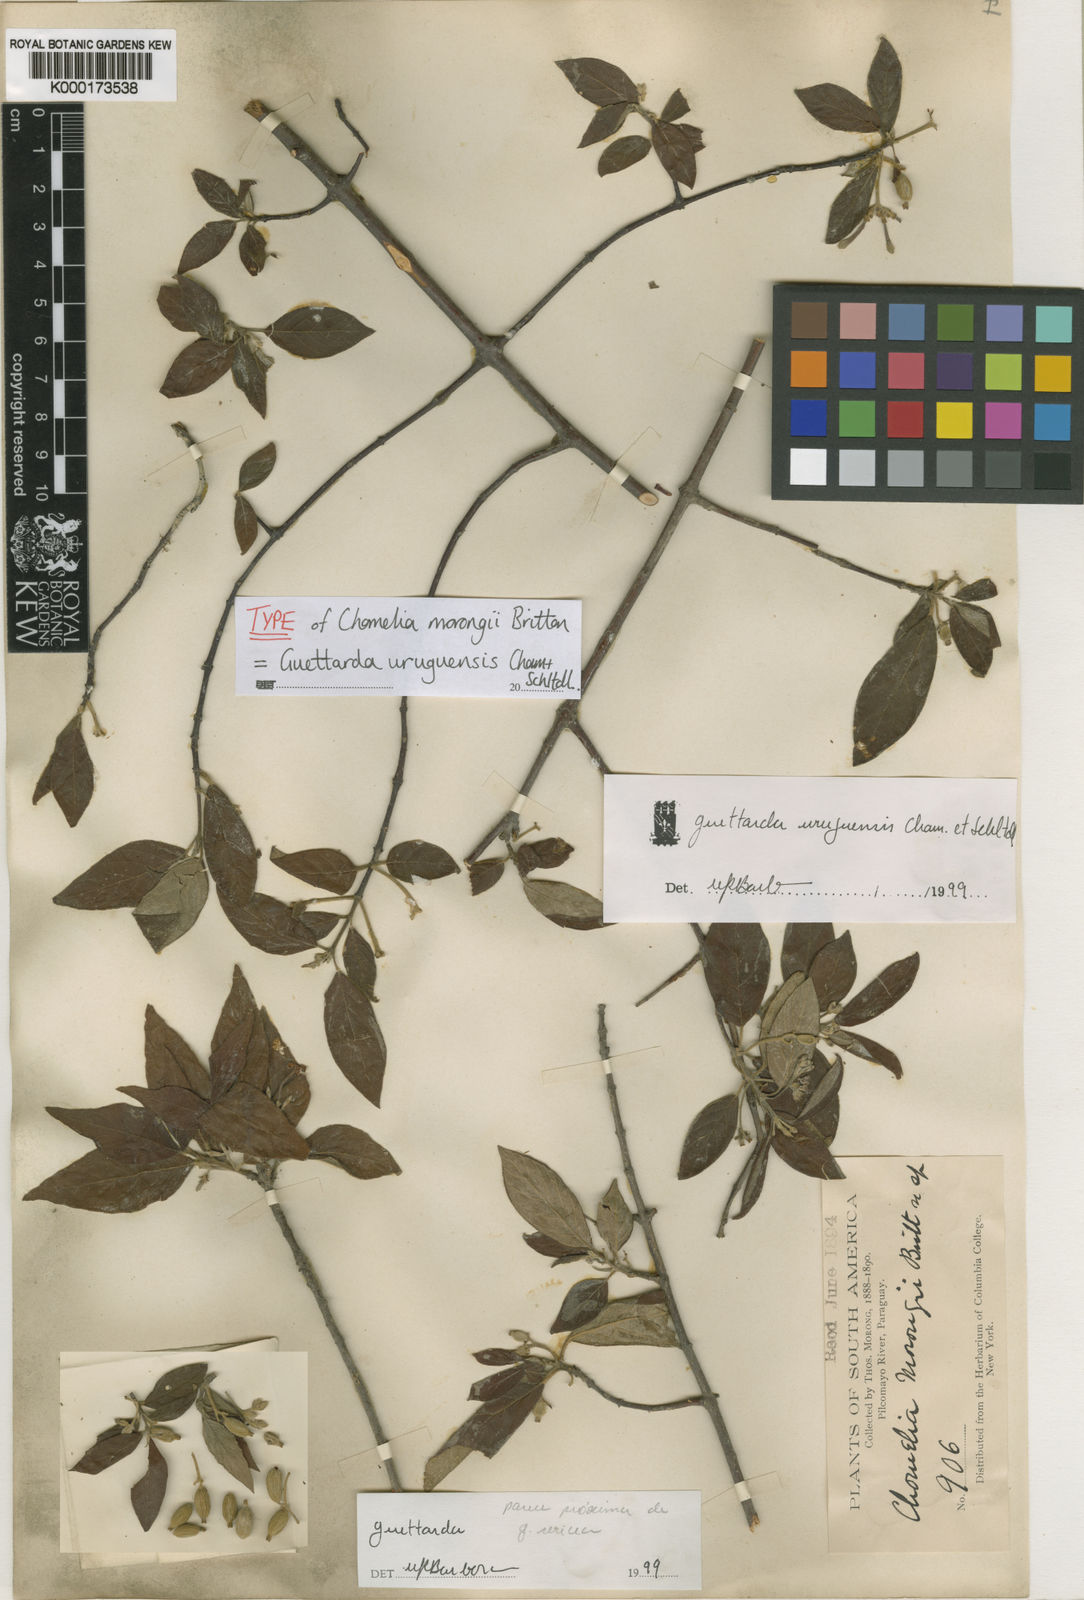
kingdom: Plantae
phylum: Tracheophyta
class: Magnoliopsida
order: Gentianales
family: Rubiaceae
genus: Guettarda
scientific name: Guettarda uruguensis
